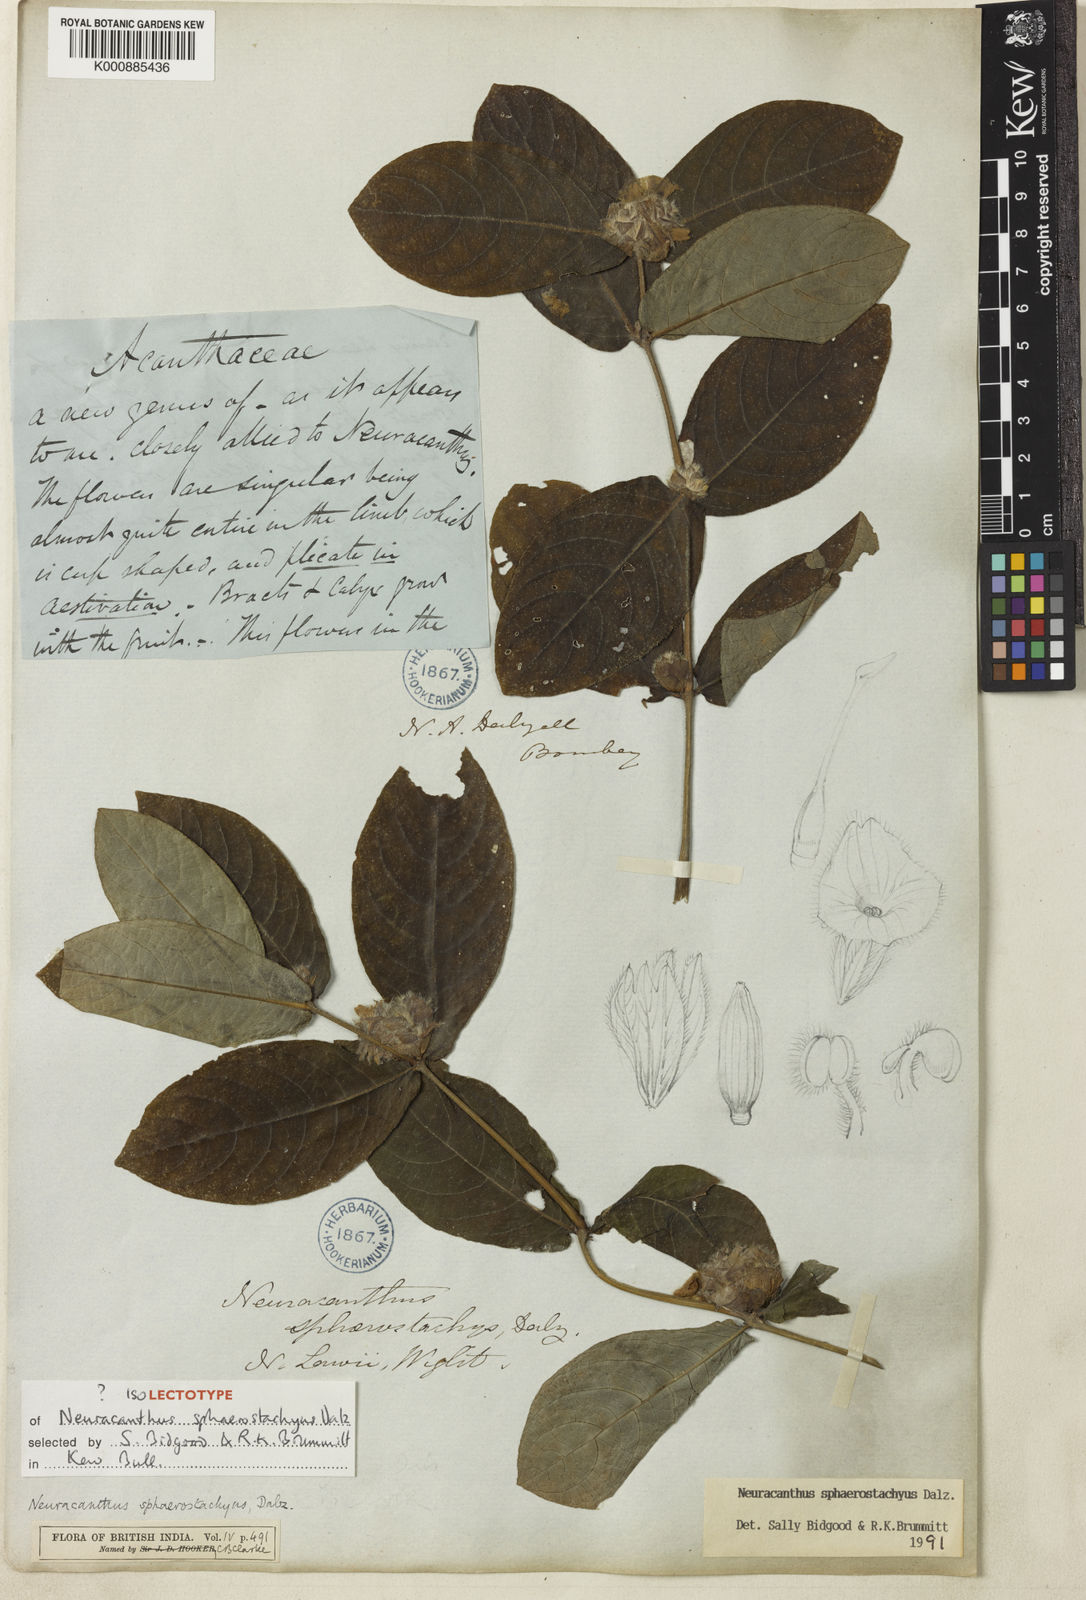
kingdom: Plantae
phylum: Tracheophyta
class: Magnoliopsida
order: Lamiales
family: Acanthaceae
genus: Neuracanthus
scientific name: Neuracanthus
